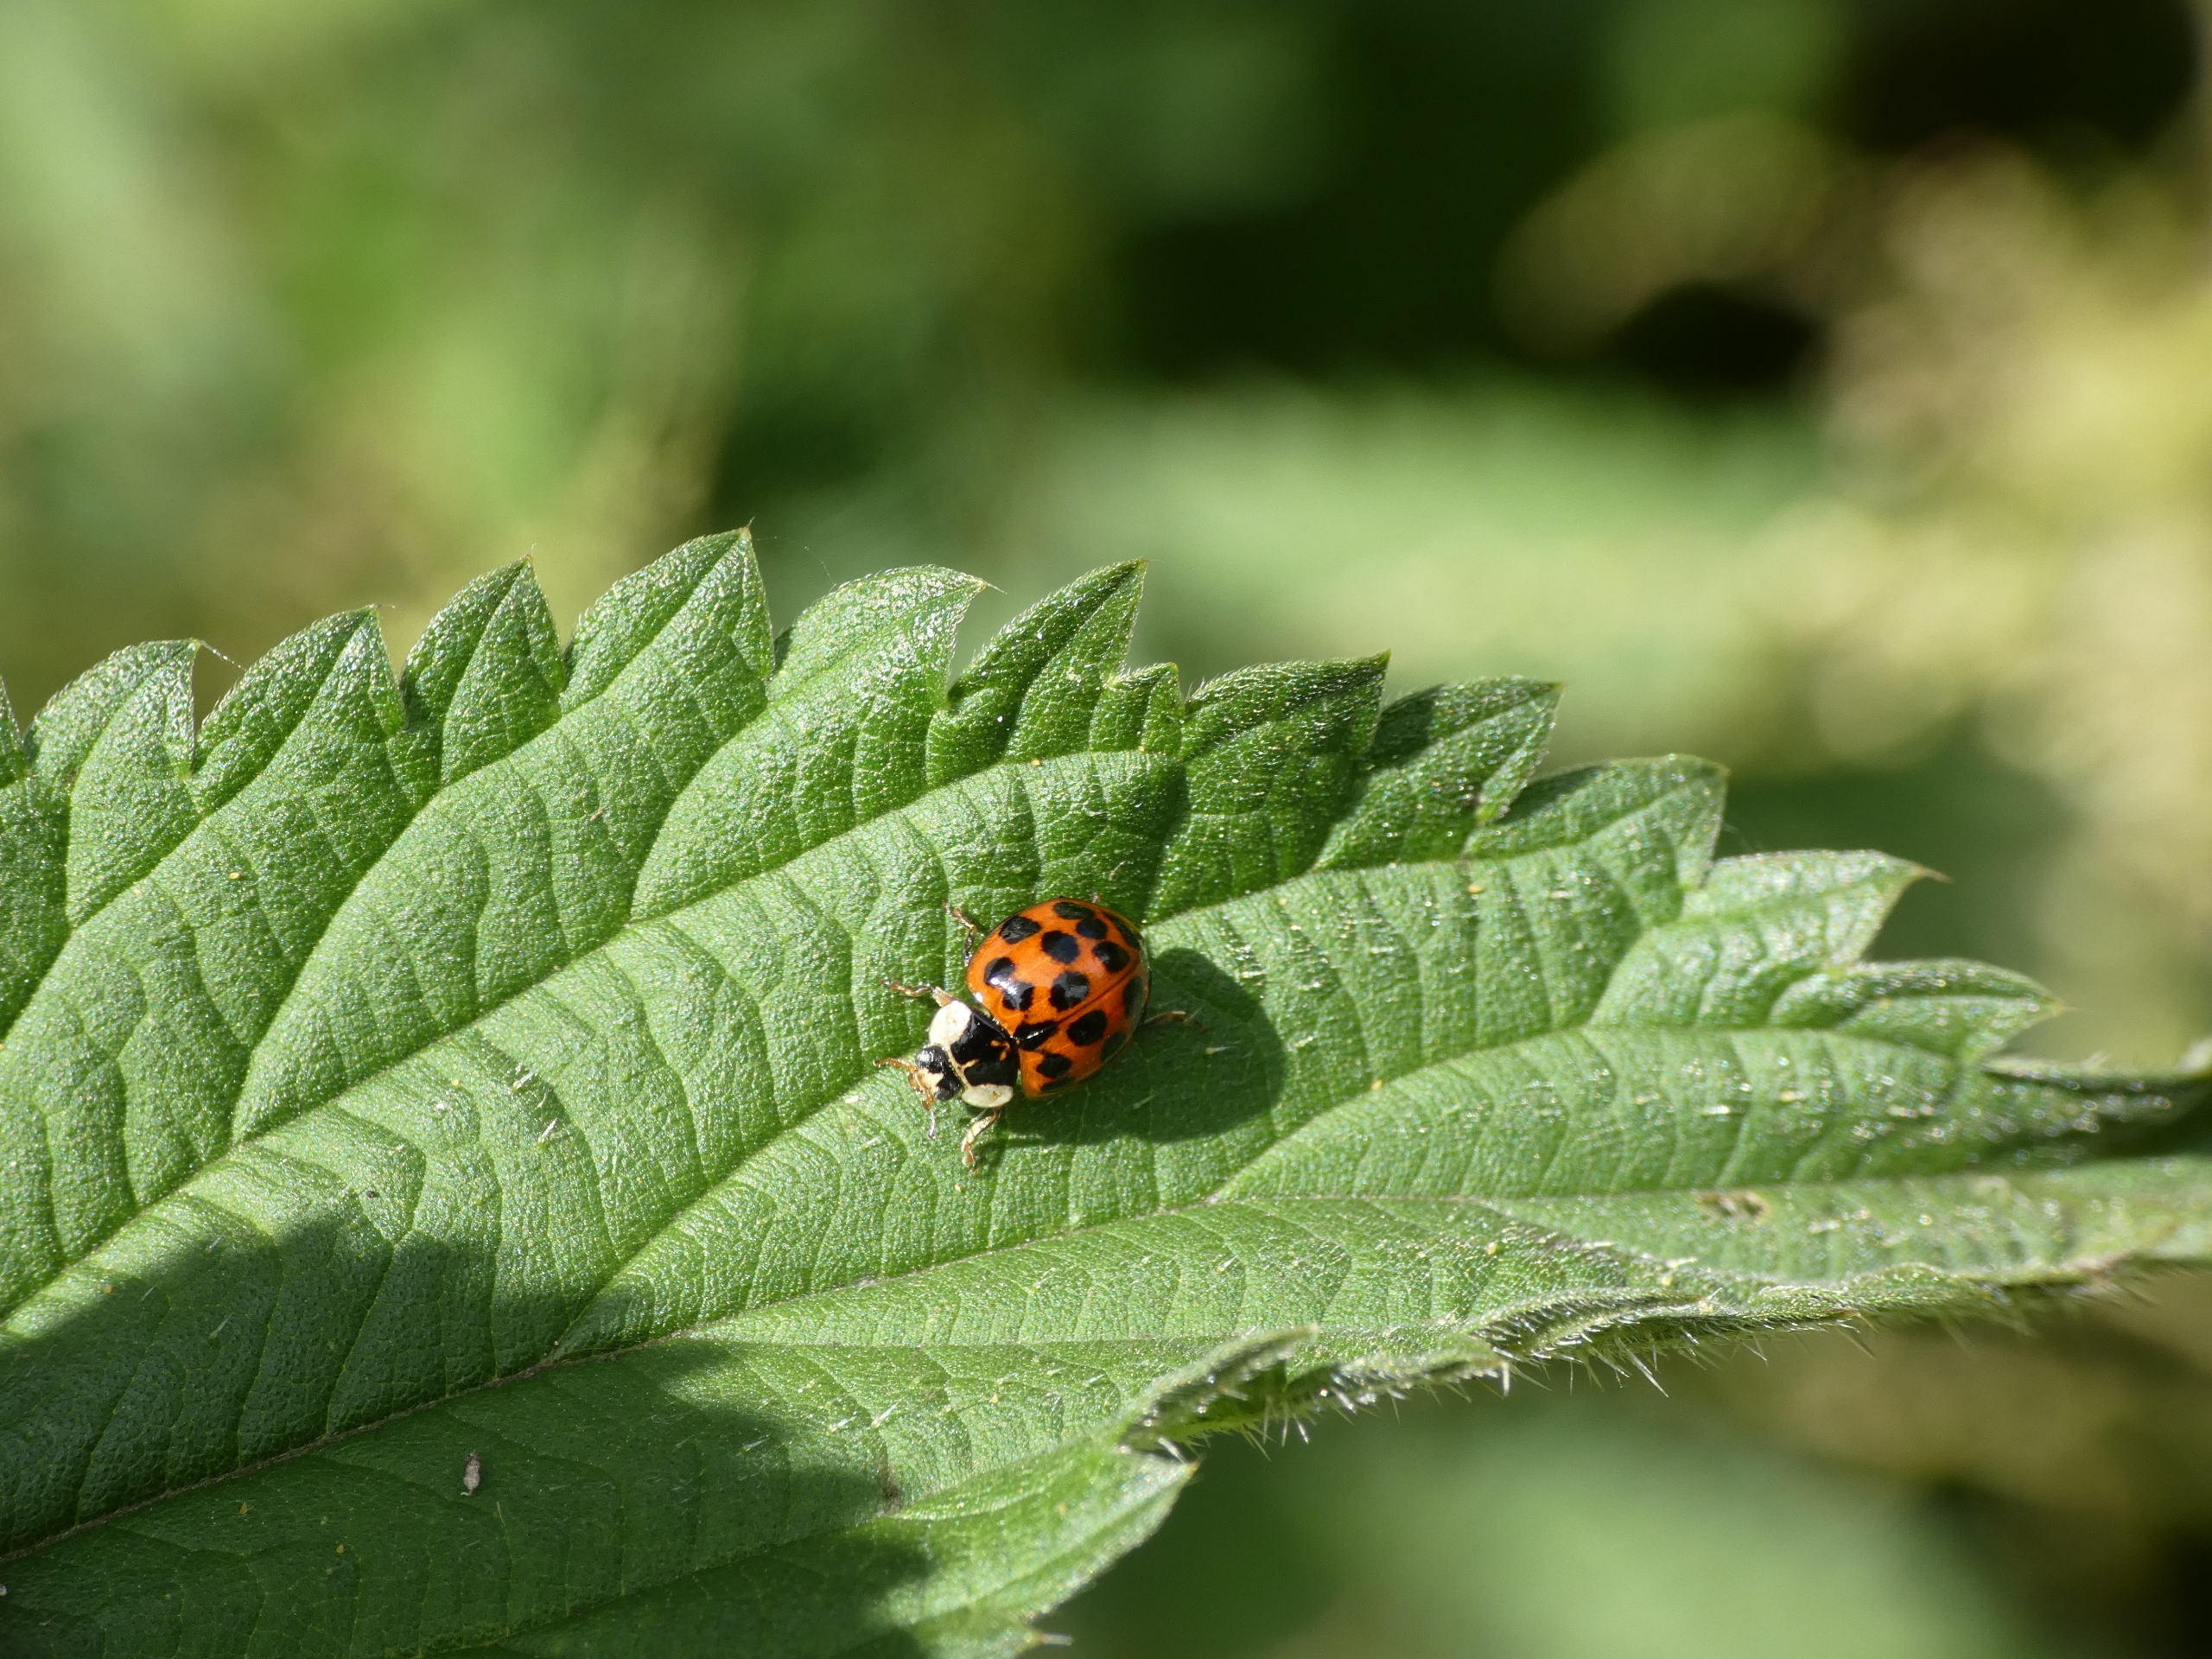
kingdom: Animalia
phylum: Arthropoda
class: Insecta
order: Coleoptera
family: Coccinellidae
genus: Harmonia
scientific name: Harmonia axyridis
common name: Harlekinmariehøne
